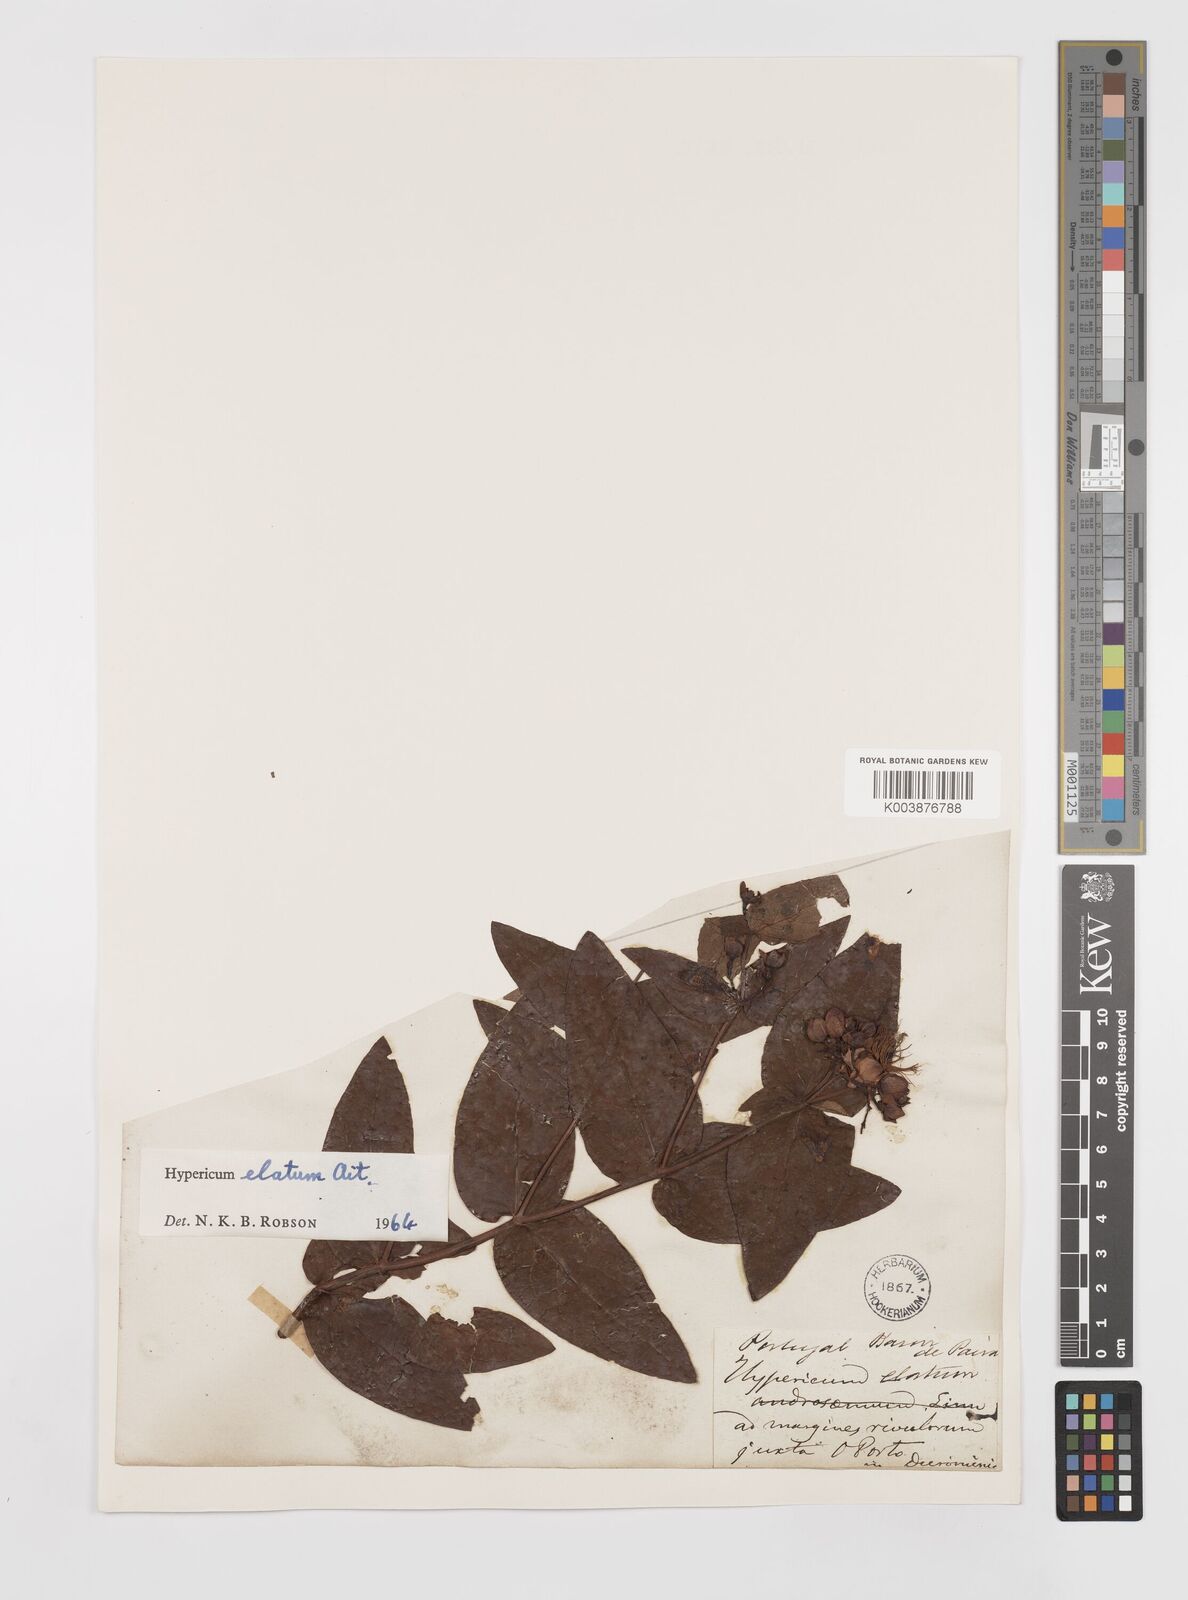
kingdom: Plantae
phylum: Tracheophyta
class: Magnoliopsida
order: Malpighiales
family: Hypericaceae
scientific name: Hypericaceae
